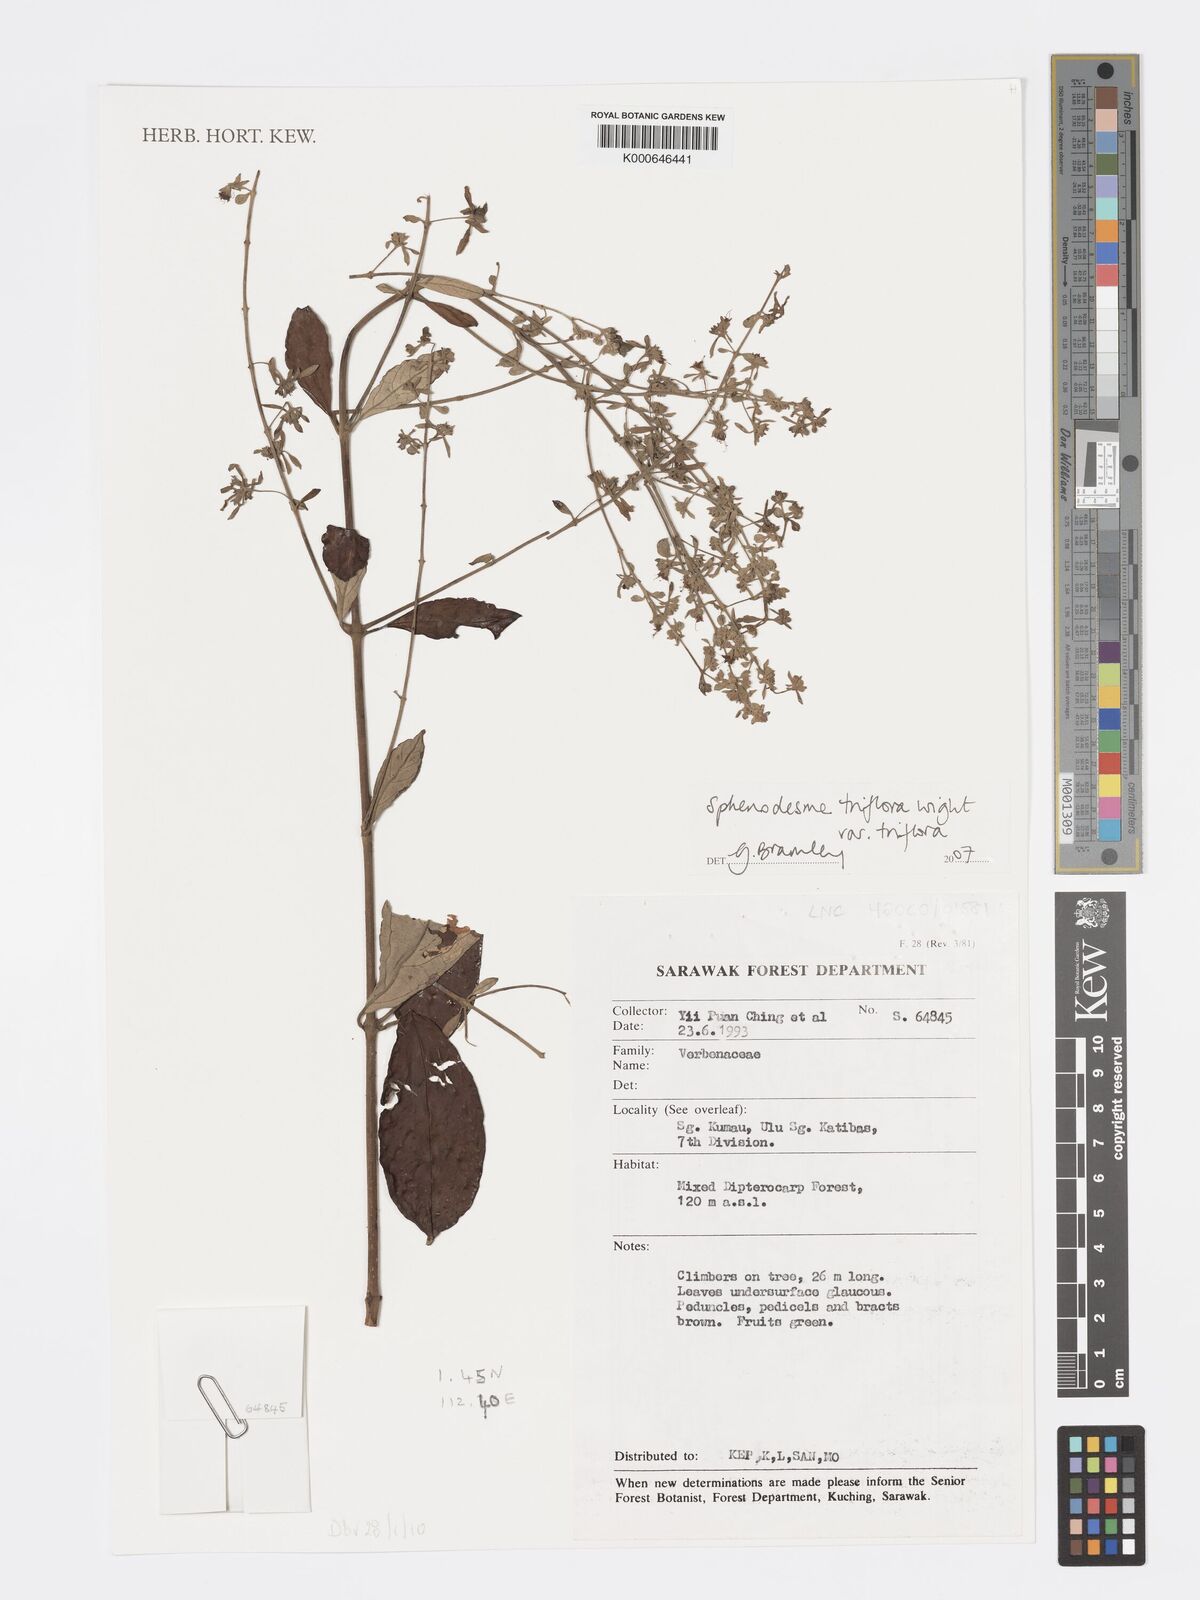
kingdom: Plantae
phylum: Tracheophyta
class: Magnoliopsida
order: Lamiales
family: Lamiaceae
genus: Sphenodesme
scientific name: Sphenodesme triflora
